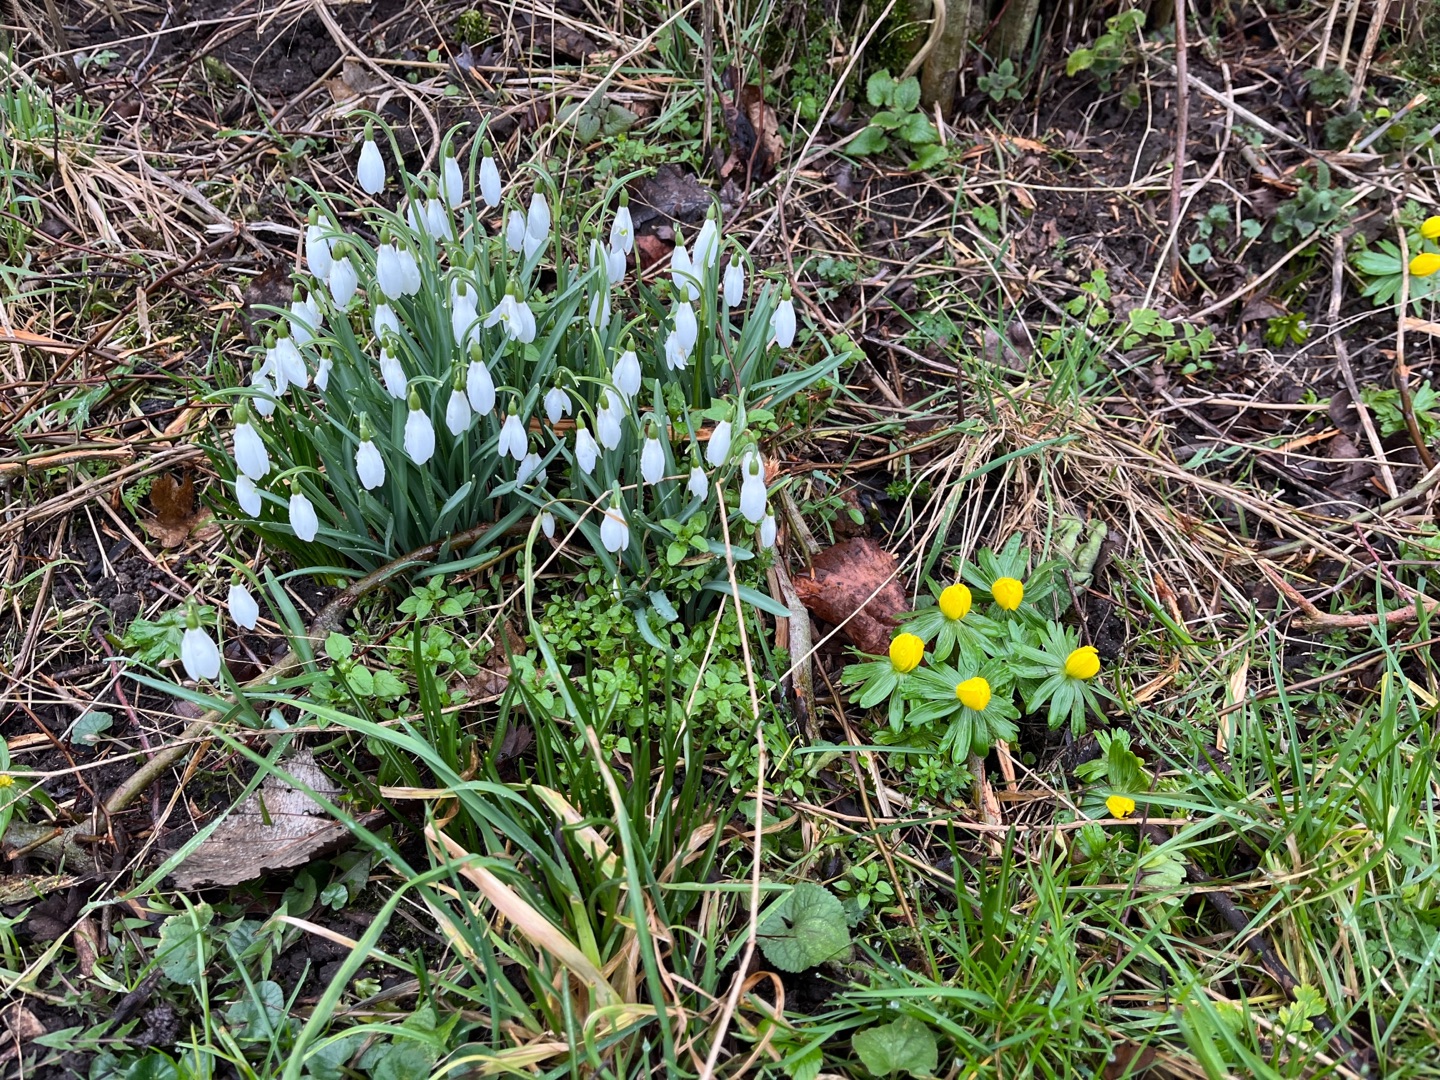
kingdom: Plantae
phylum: Tracheophyta
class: Magnoliopsida
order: Ranunculales
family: Ranunculaceae
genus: Eranthis
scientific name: Eranthis hyemalis
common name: Erantis
